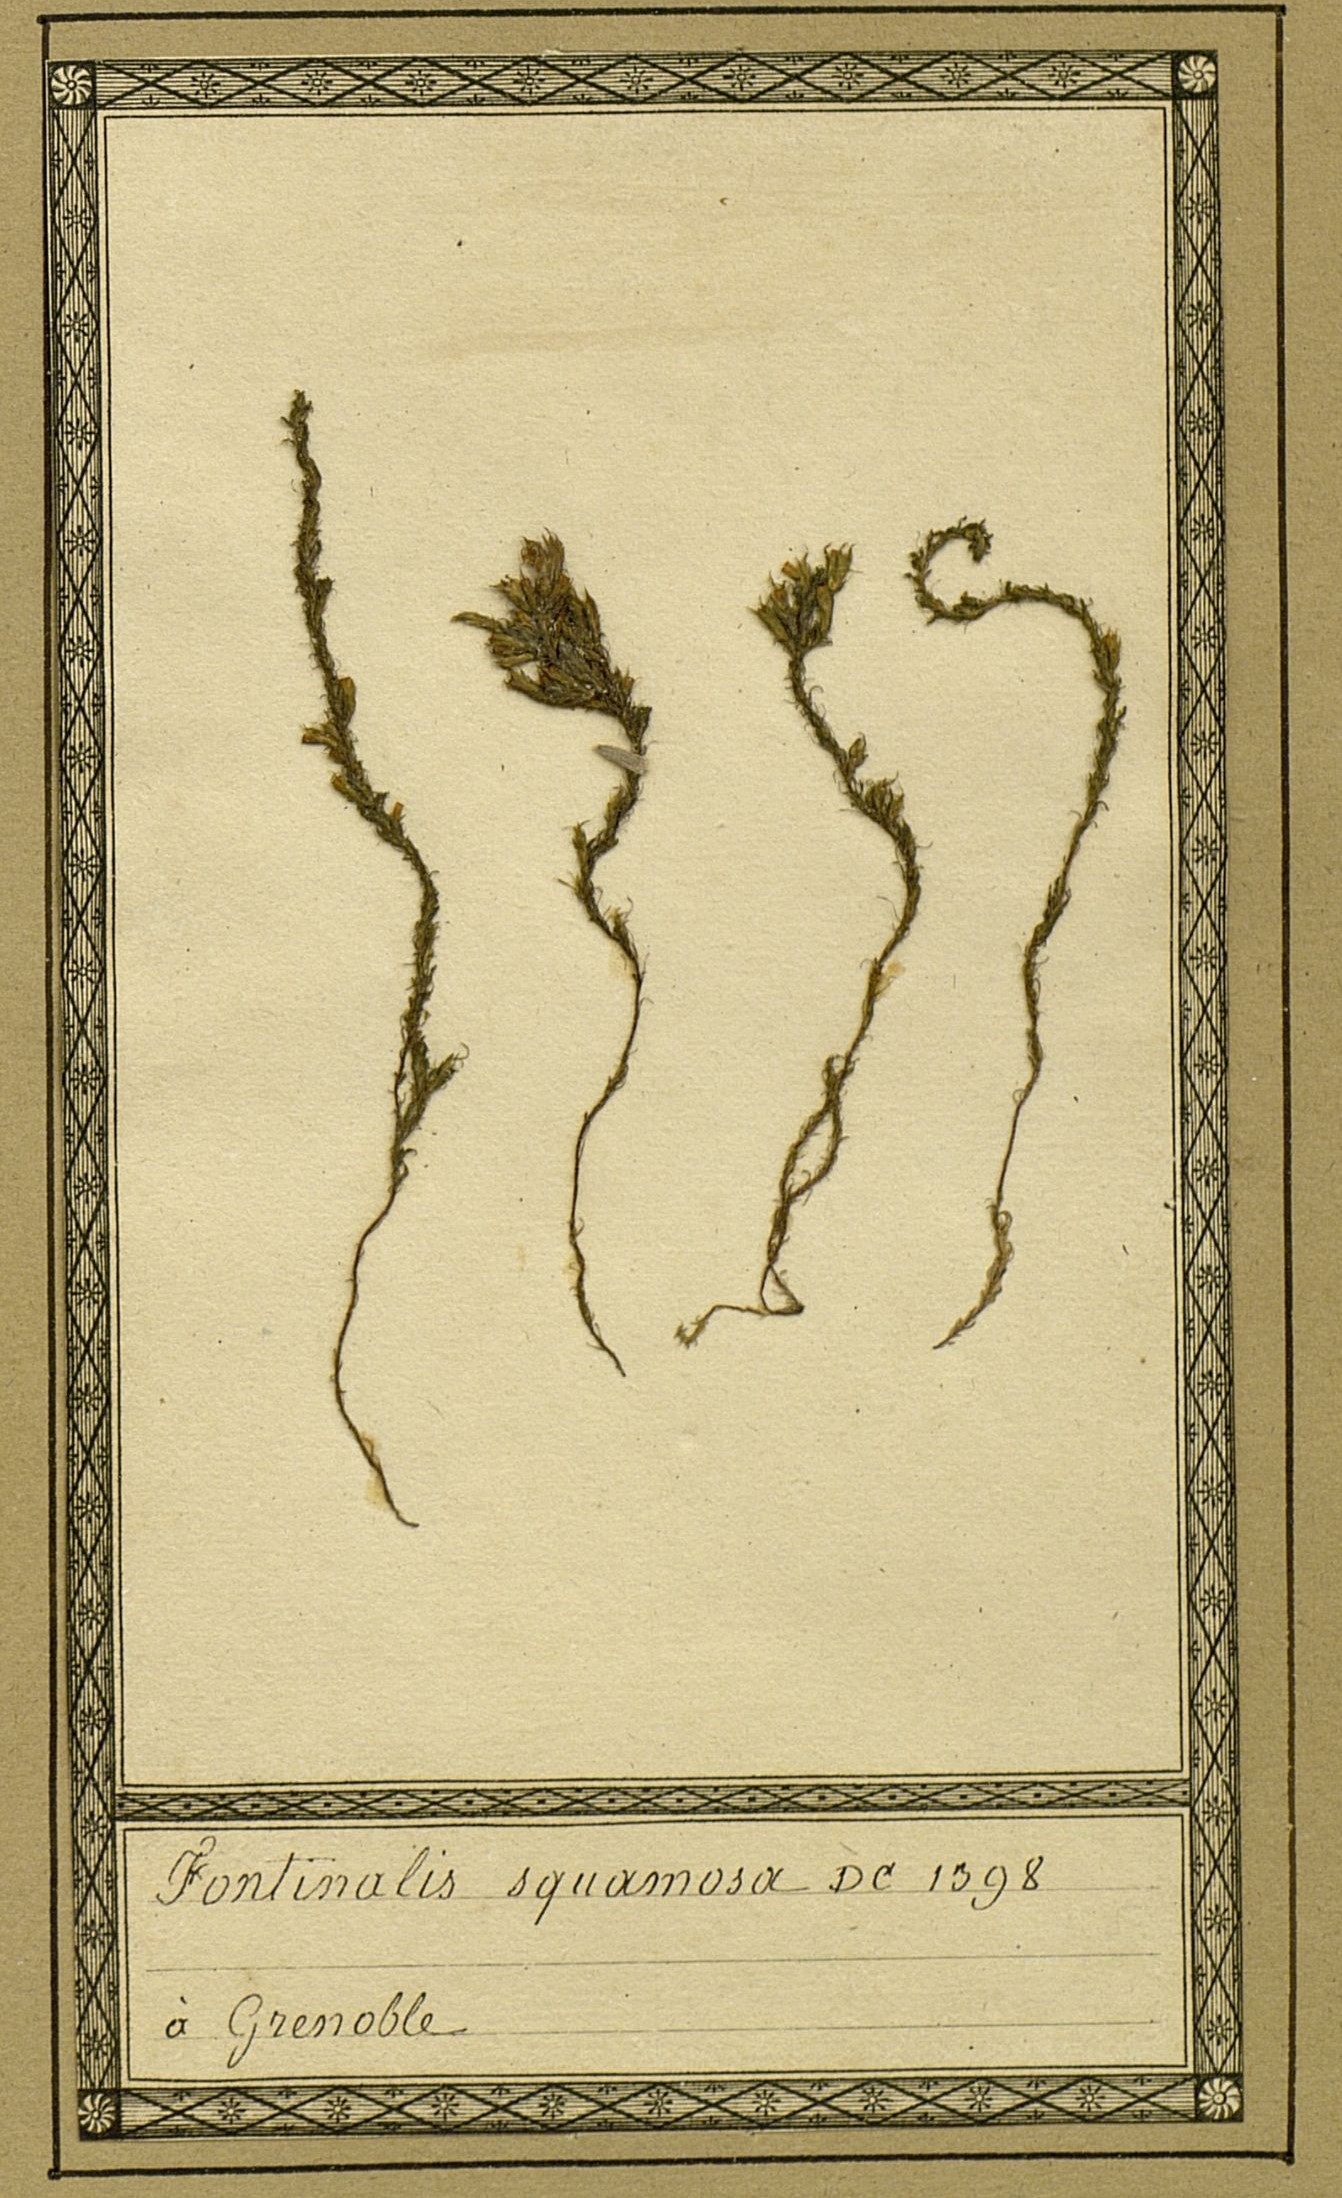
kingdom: Plantae
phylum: Bryophyta
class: Bryopsida
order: Hypnales
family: Fontinalaceae
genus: Fontinalis
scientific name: Fontinalis squamosa
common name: Alpine water-moss
